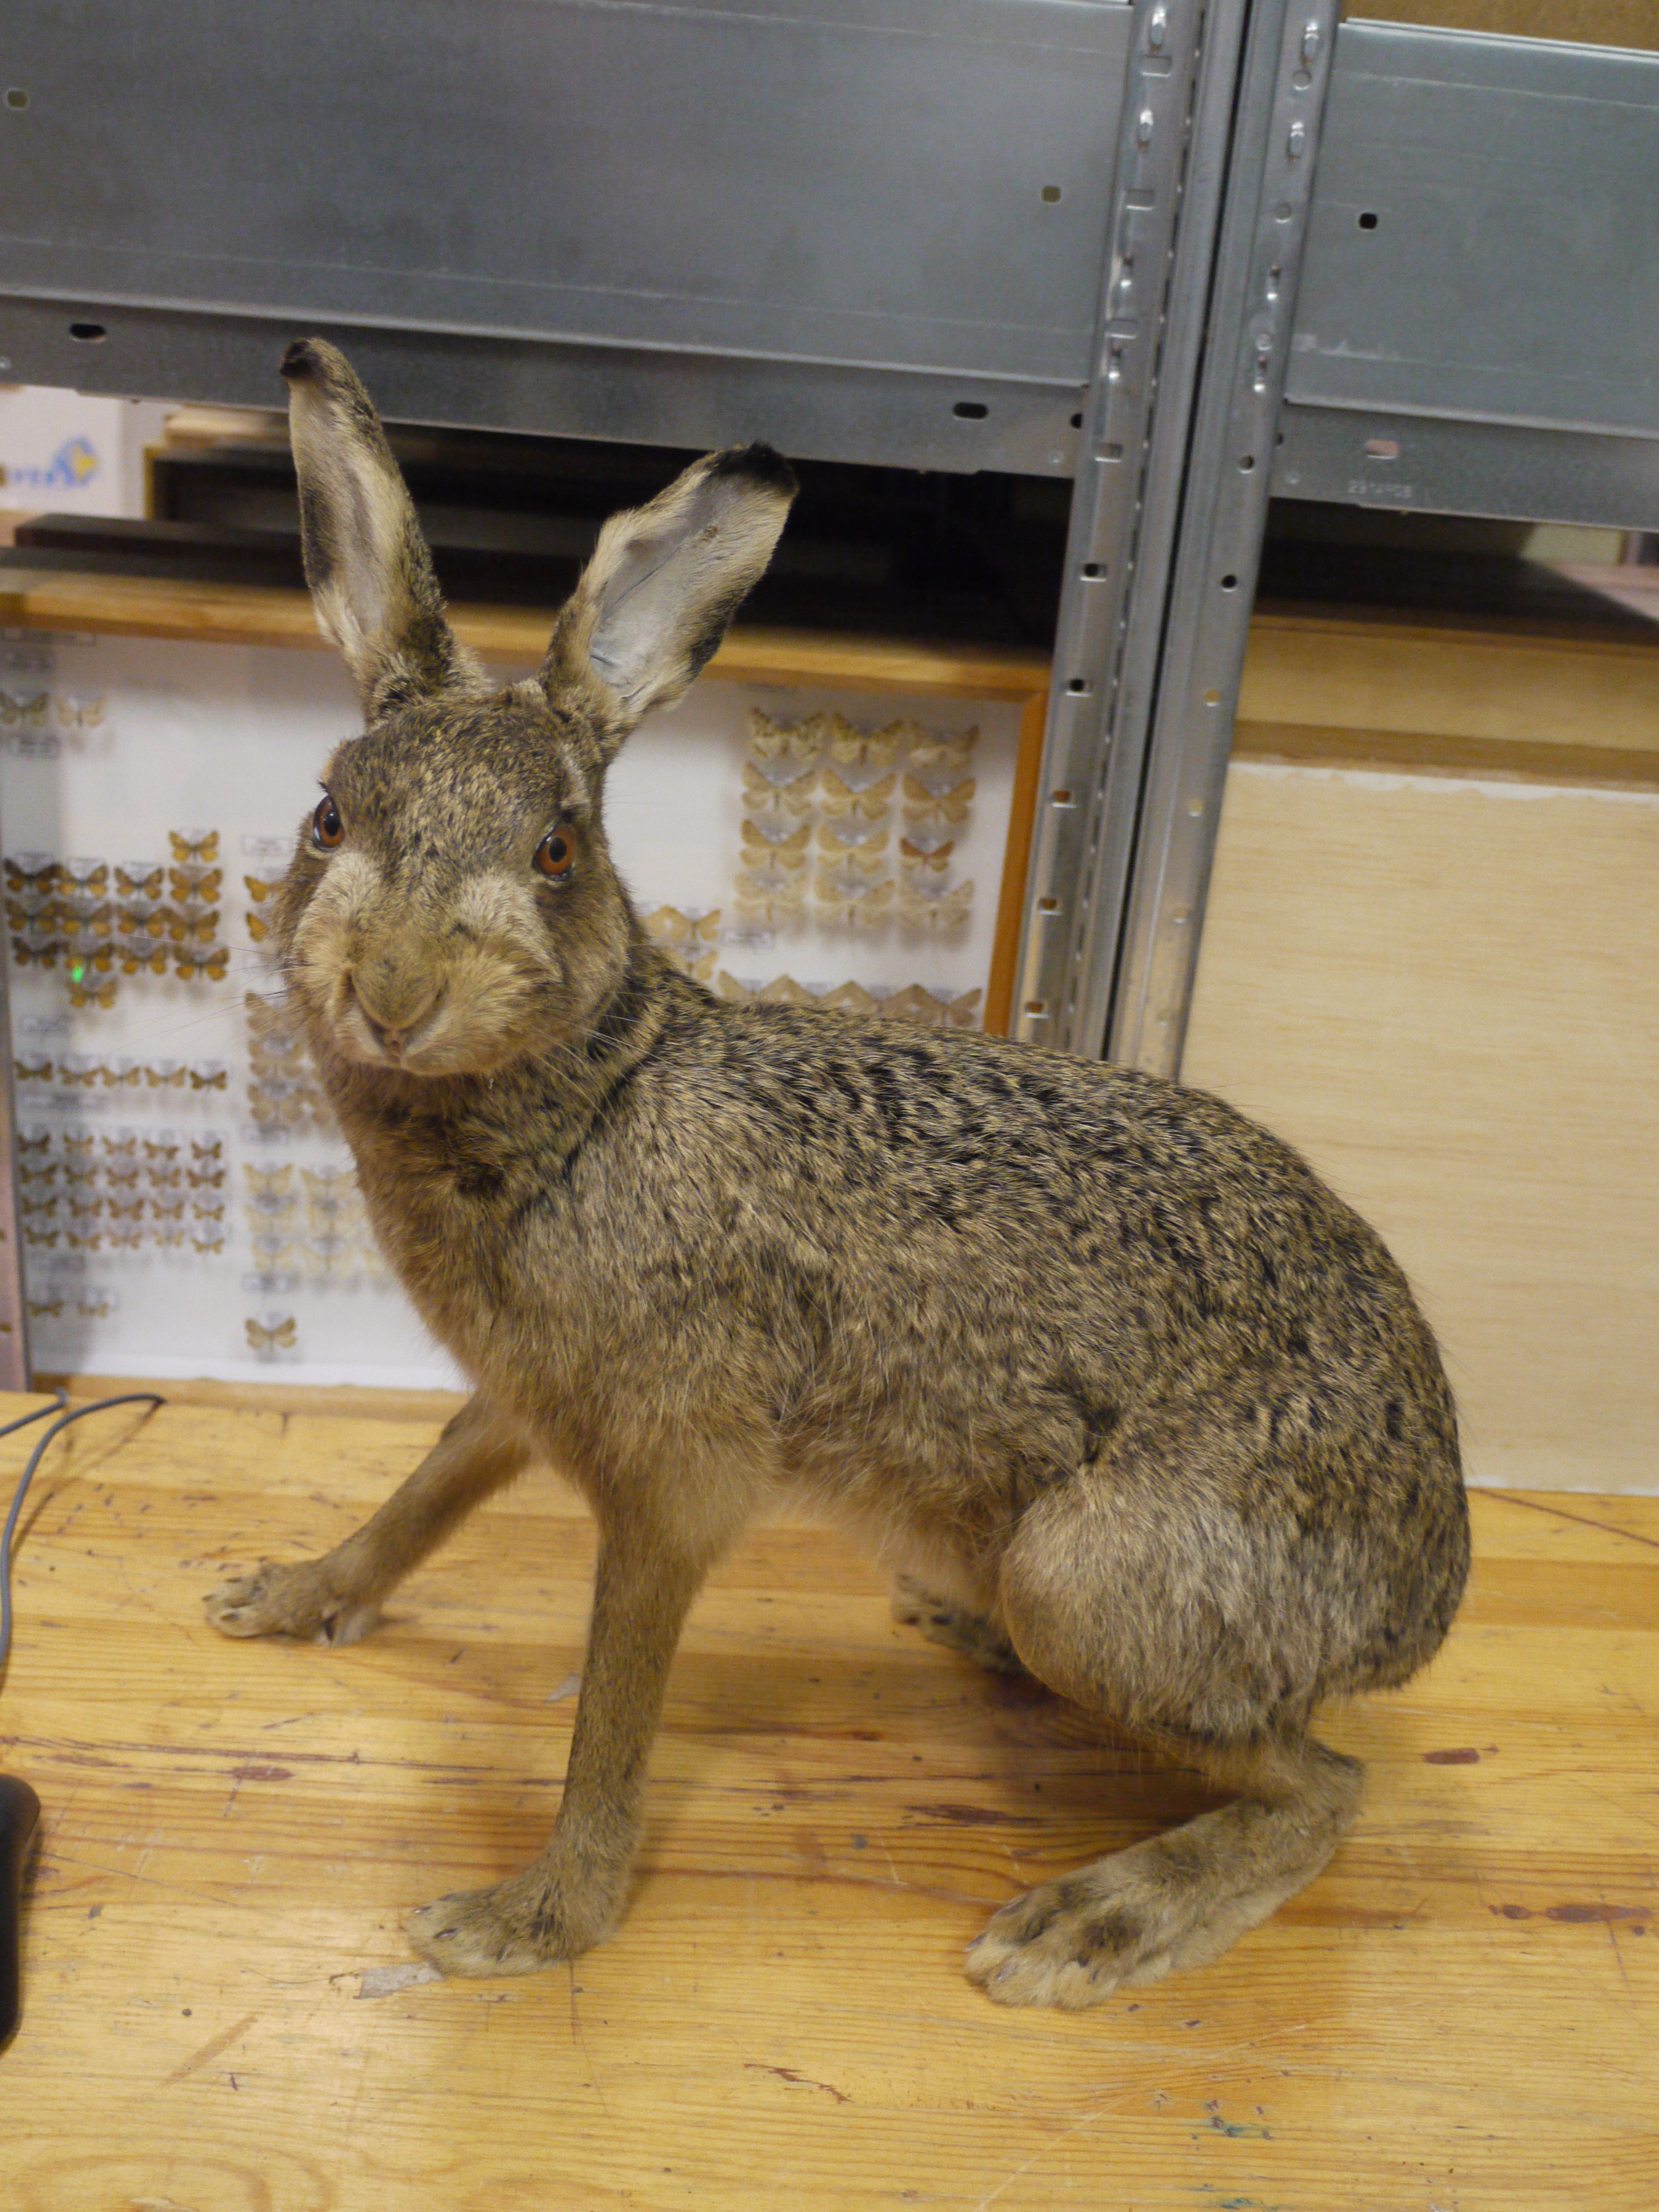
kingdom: Animalia
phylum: Chordata
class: Mammalia
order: Lagomorpha
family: Leporidae
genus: Lepus
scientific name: Lepus europaeus
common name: European hare
